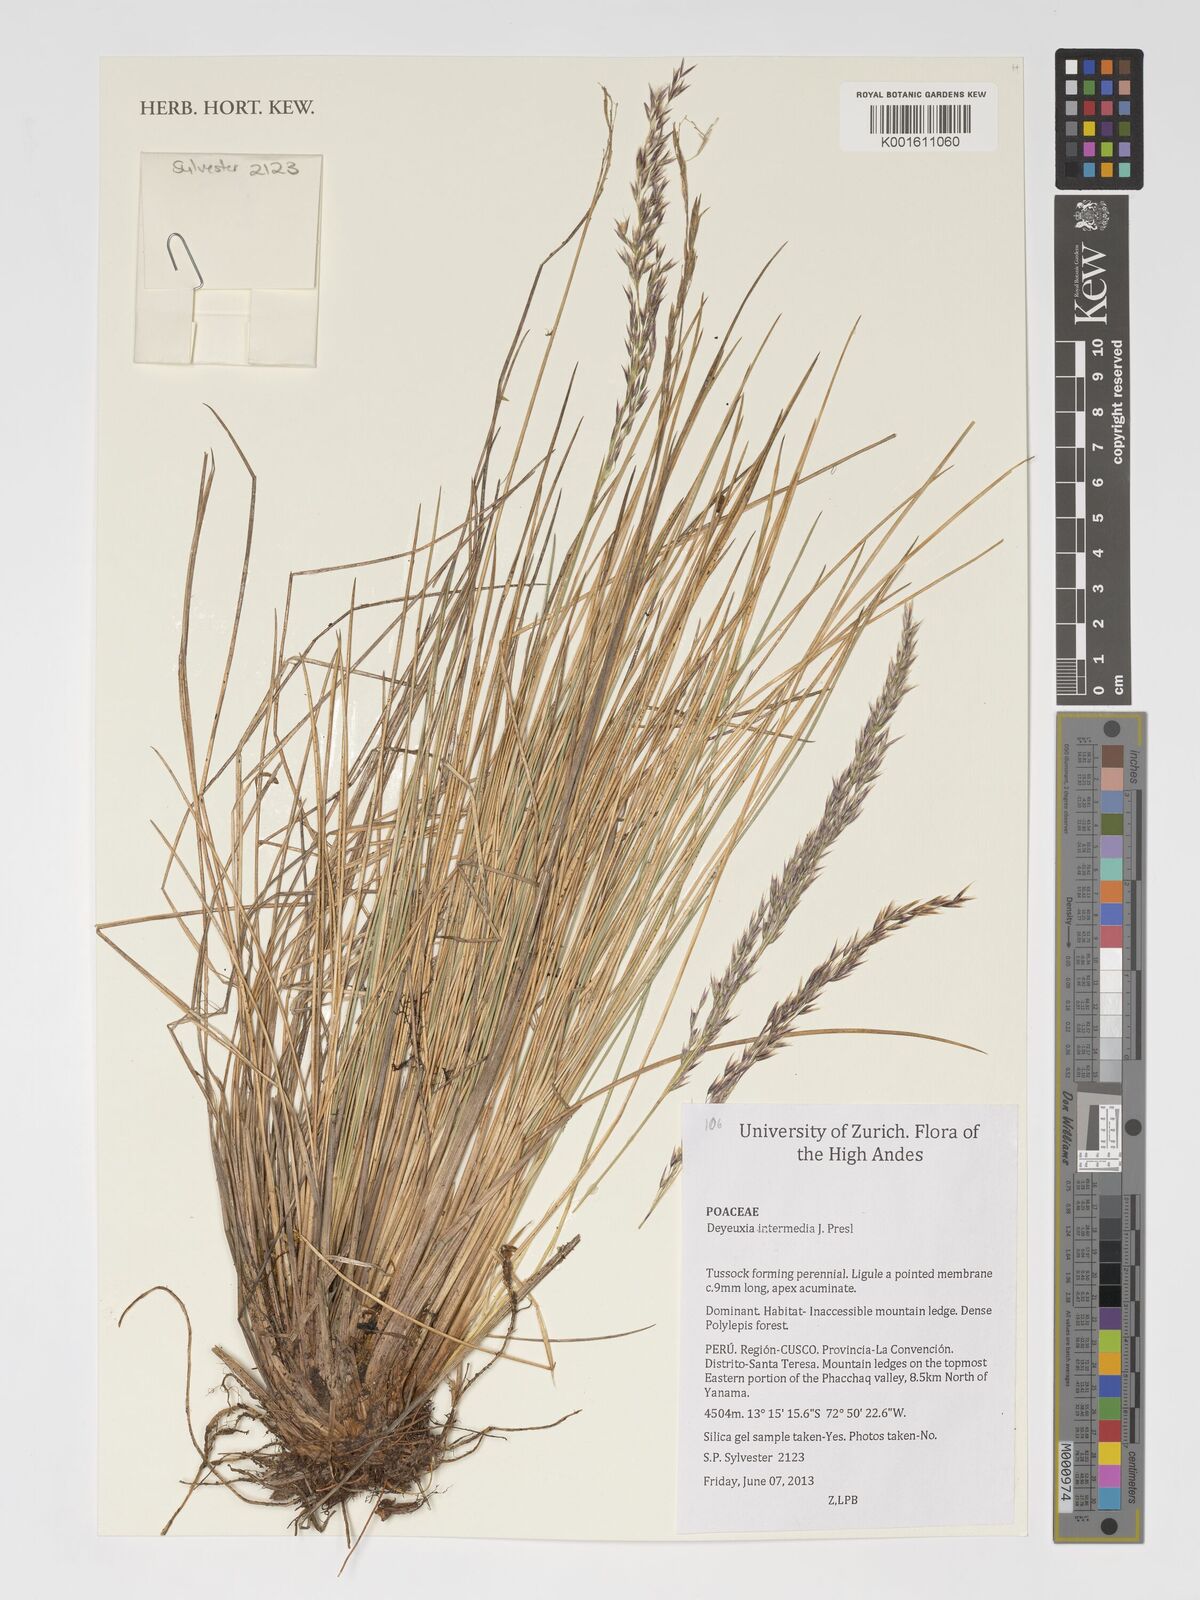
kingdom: Plantae
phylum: Tracheophyta
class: Liliopsida
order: Poales
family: Poaceae
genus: Cinnagrostis
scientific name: Cinnagrostis intermedia
